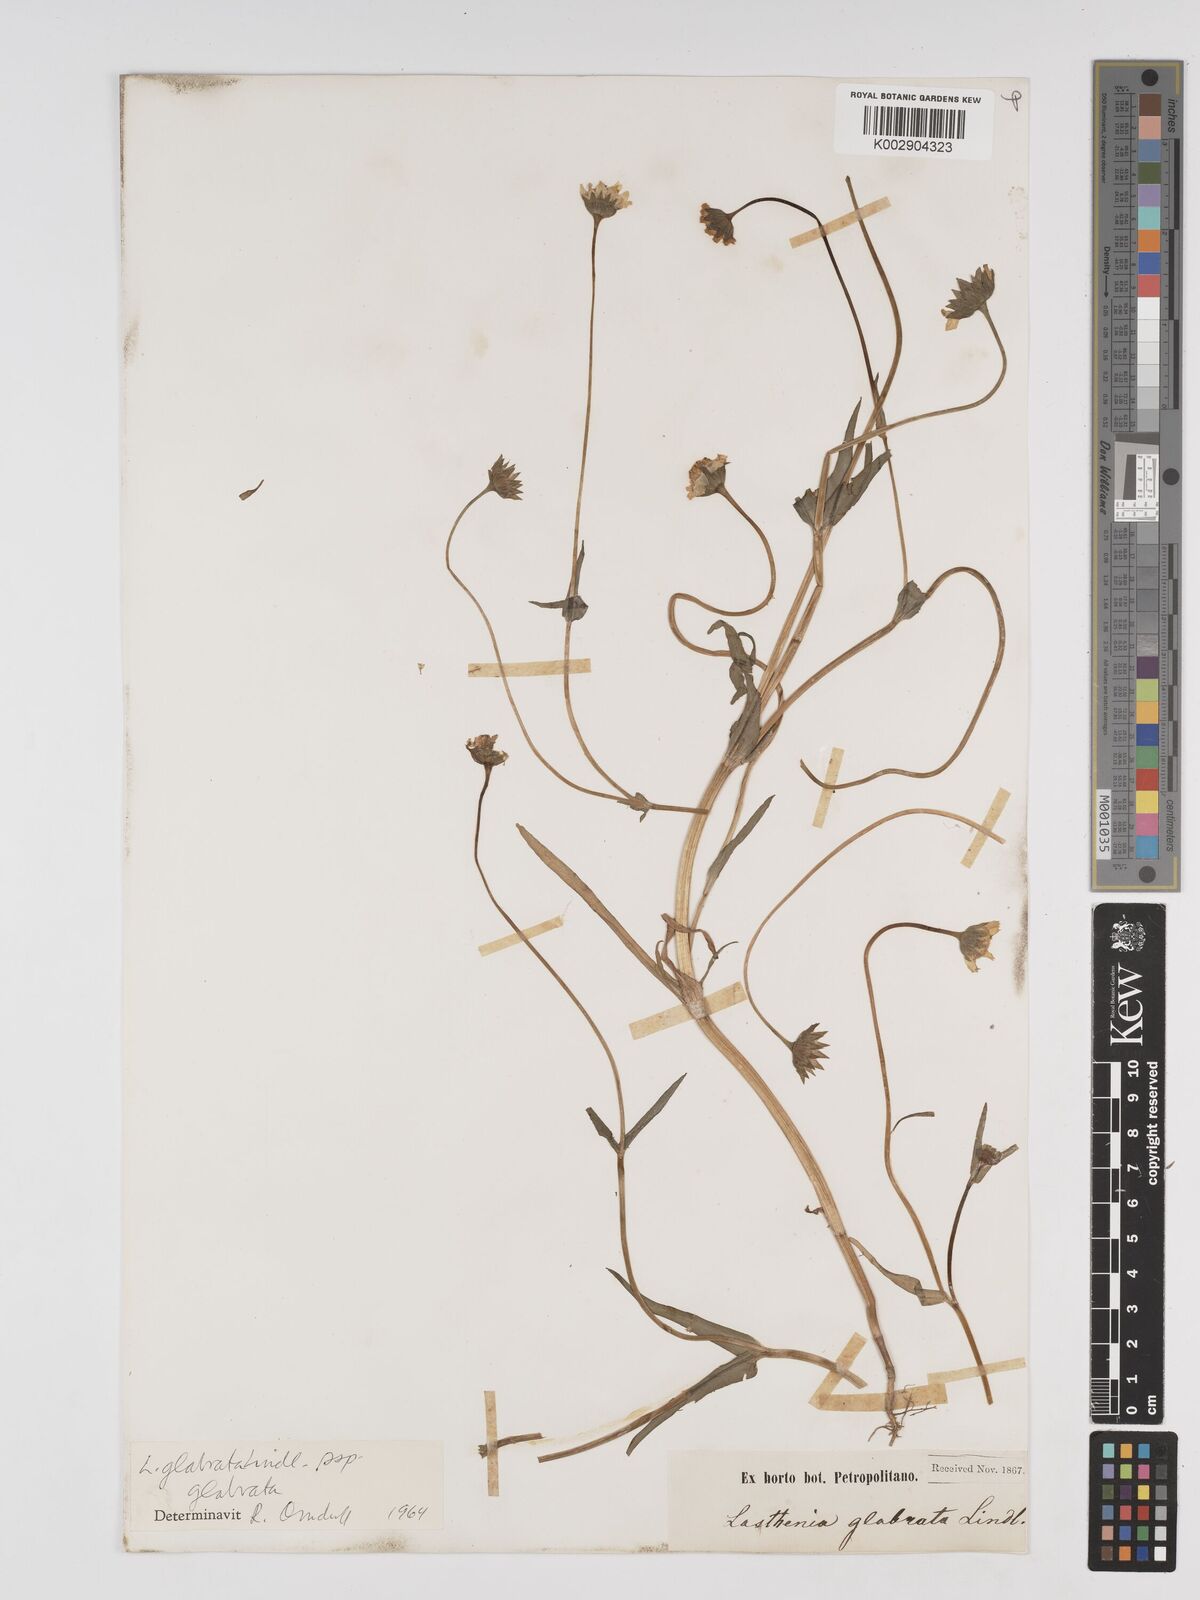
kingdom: Plantae
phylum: Tracheophyta
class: Magnoliopsida
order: Asterales
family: Asteraceae
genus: Lasthenia
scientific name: Lasthenia glabrata
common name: Yellow-ray lasthenia
